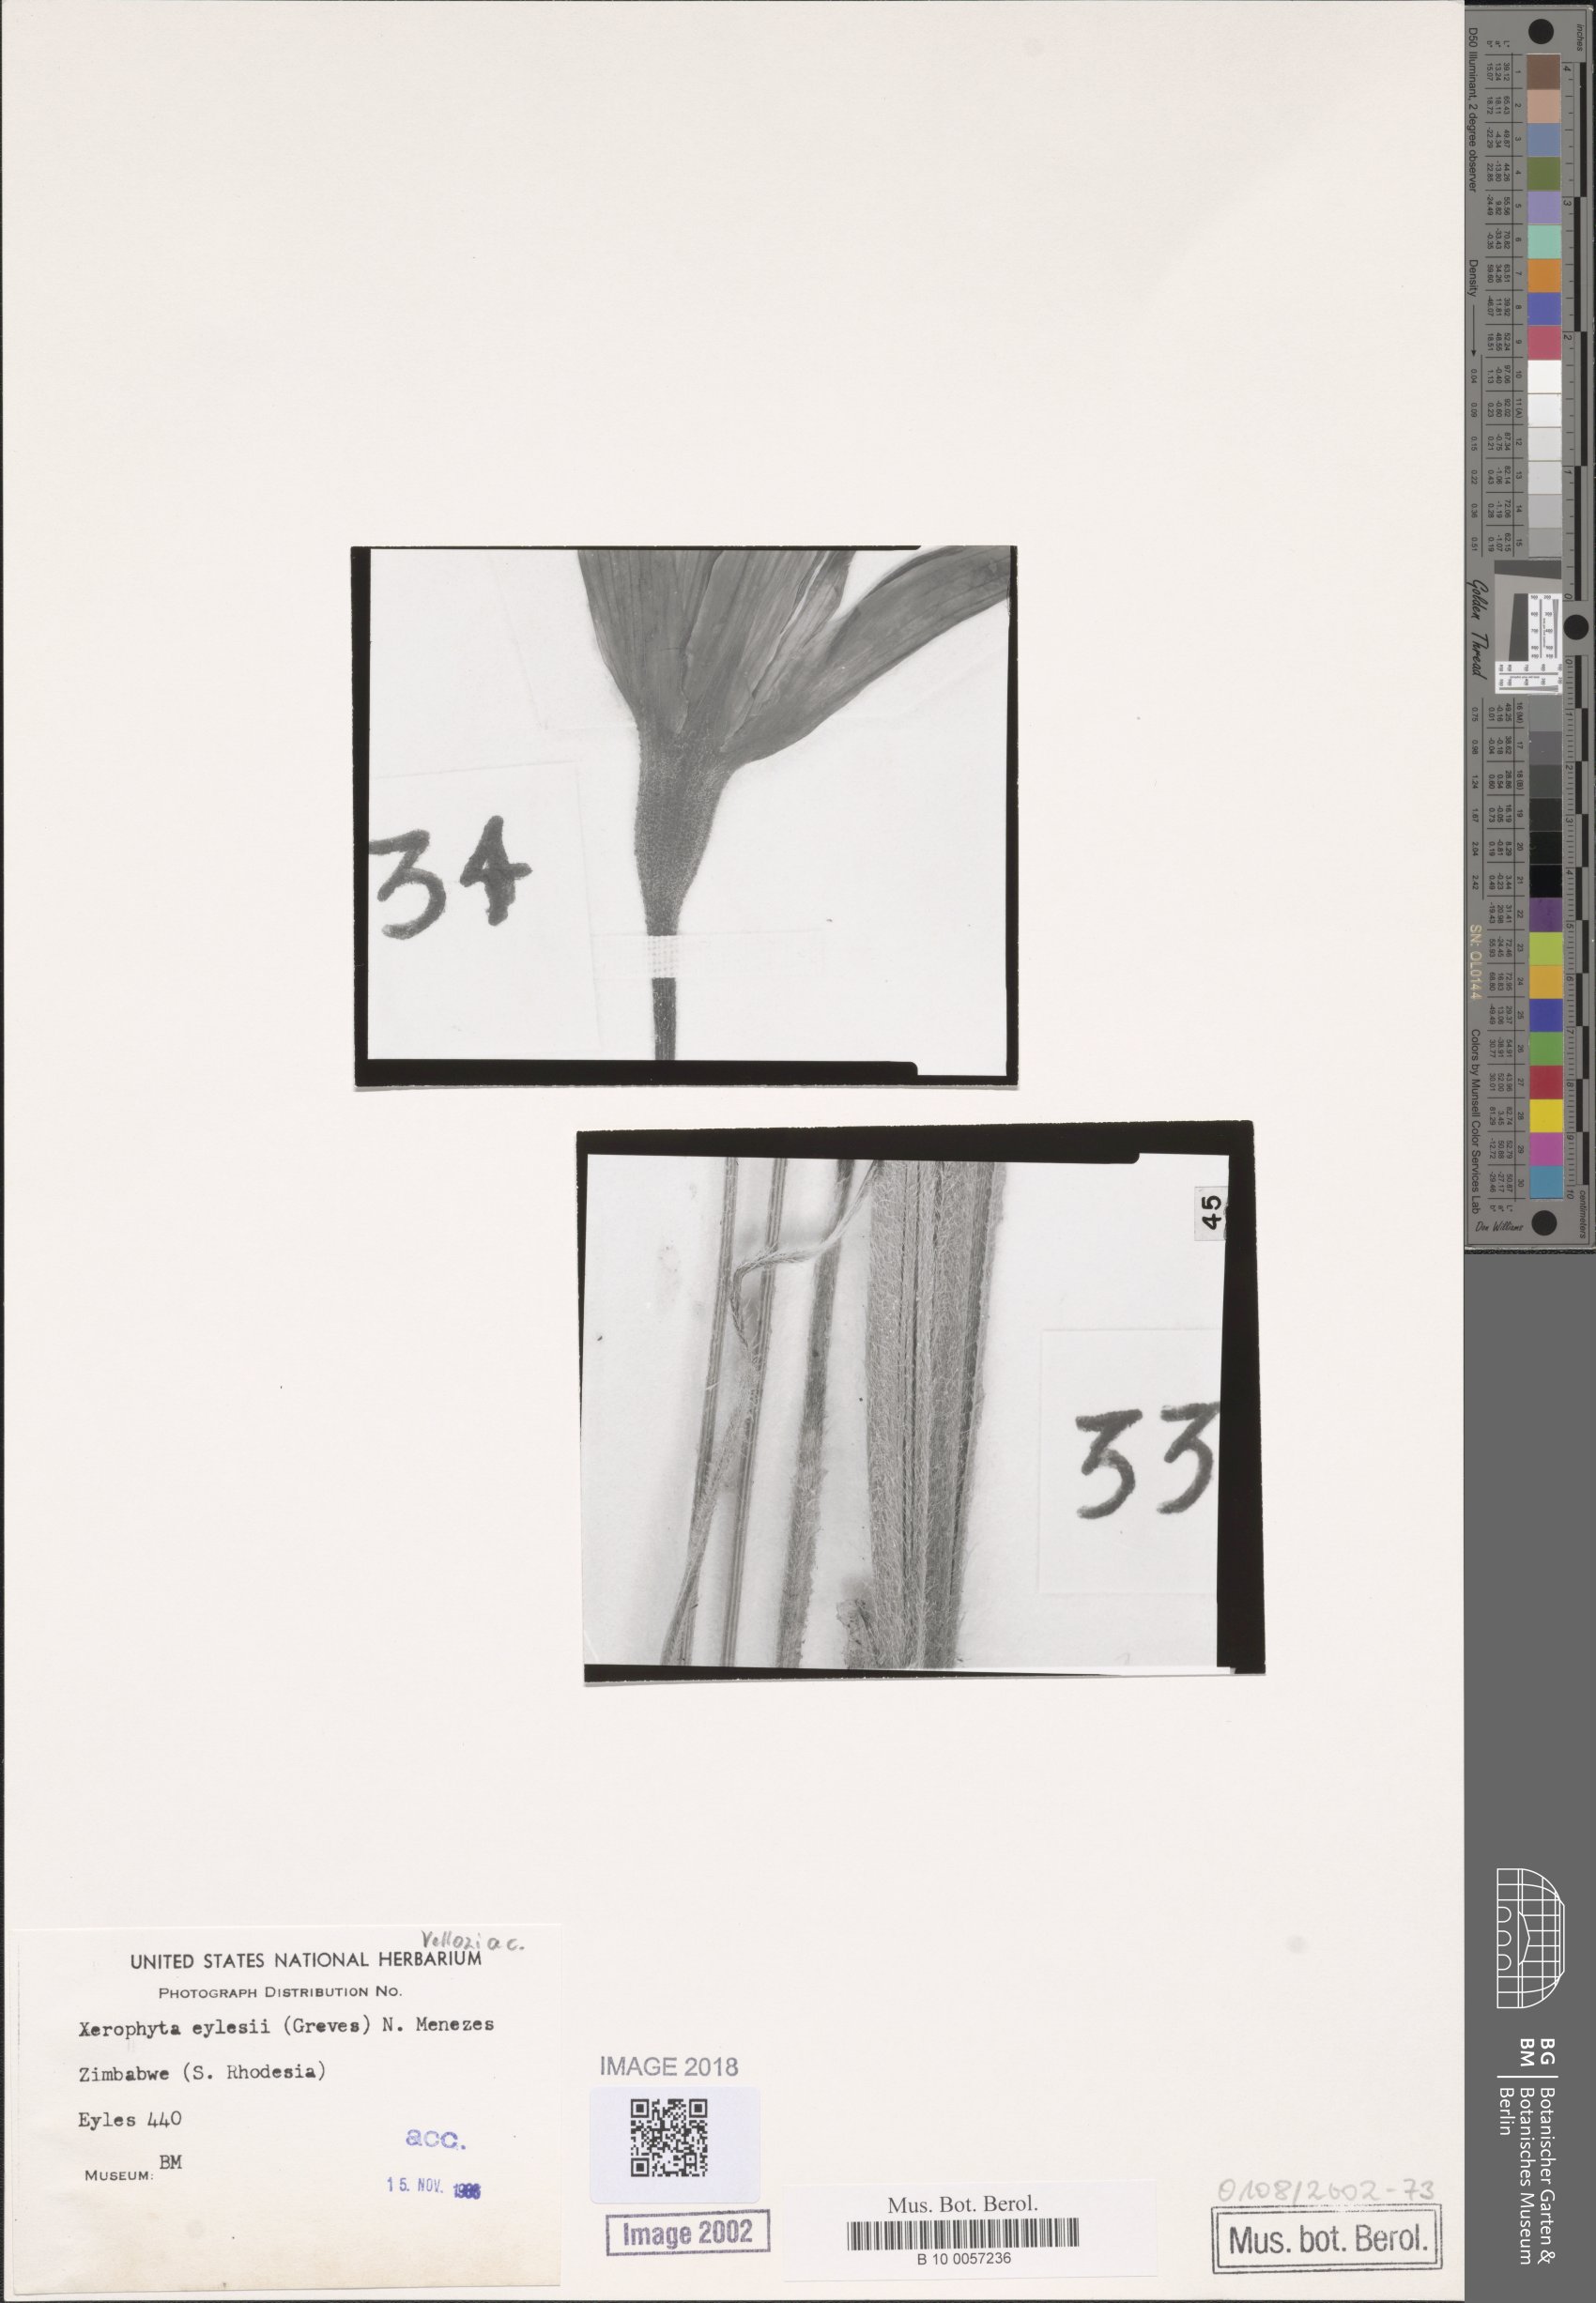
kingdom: Plantae
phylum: Tracheophyta
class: Liliopsida
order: Pandanales
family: Velloziaceae
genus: Xerophyta
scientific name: Xerophyta eylesii
